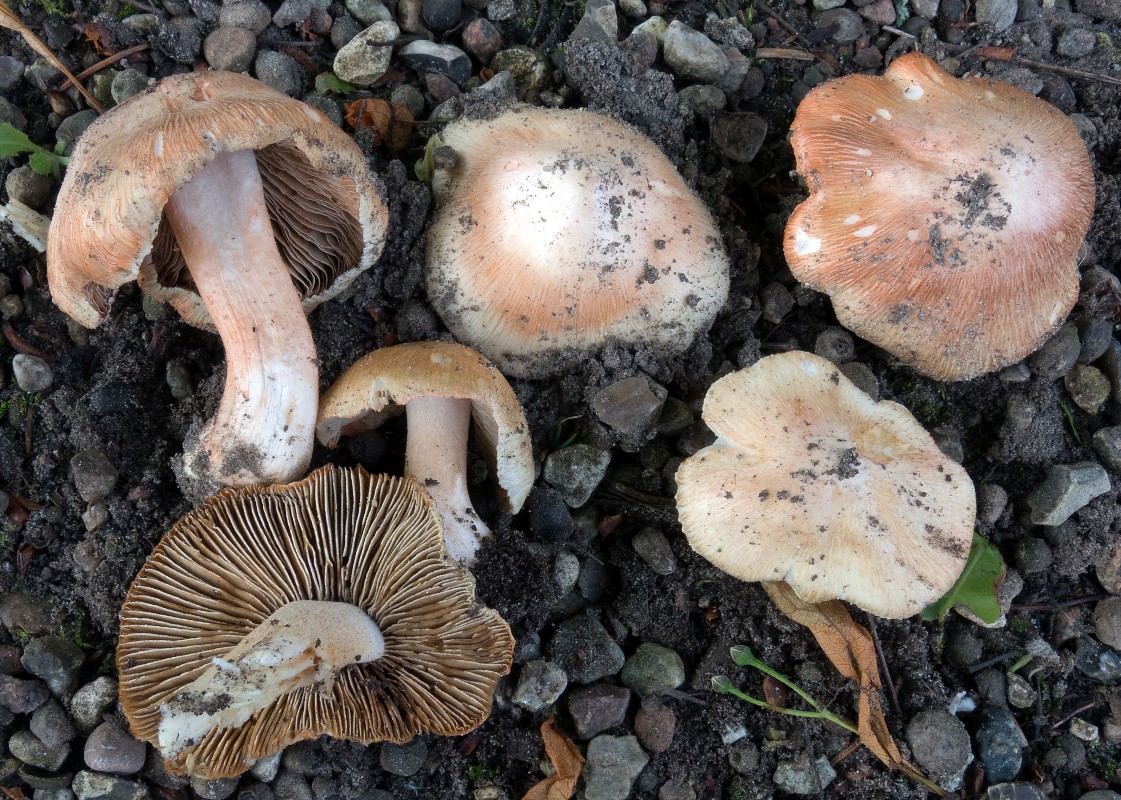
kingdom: Fungi
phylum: Basidiomycota
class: Agaricomycetes
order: Agaricales
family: Inocybaceae
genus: Inosperma
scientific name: Inosperma erubescens
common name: giftig trævlhat
